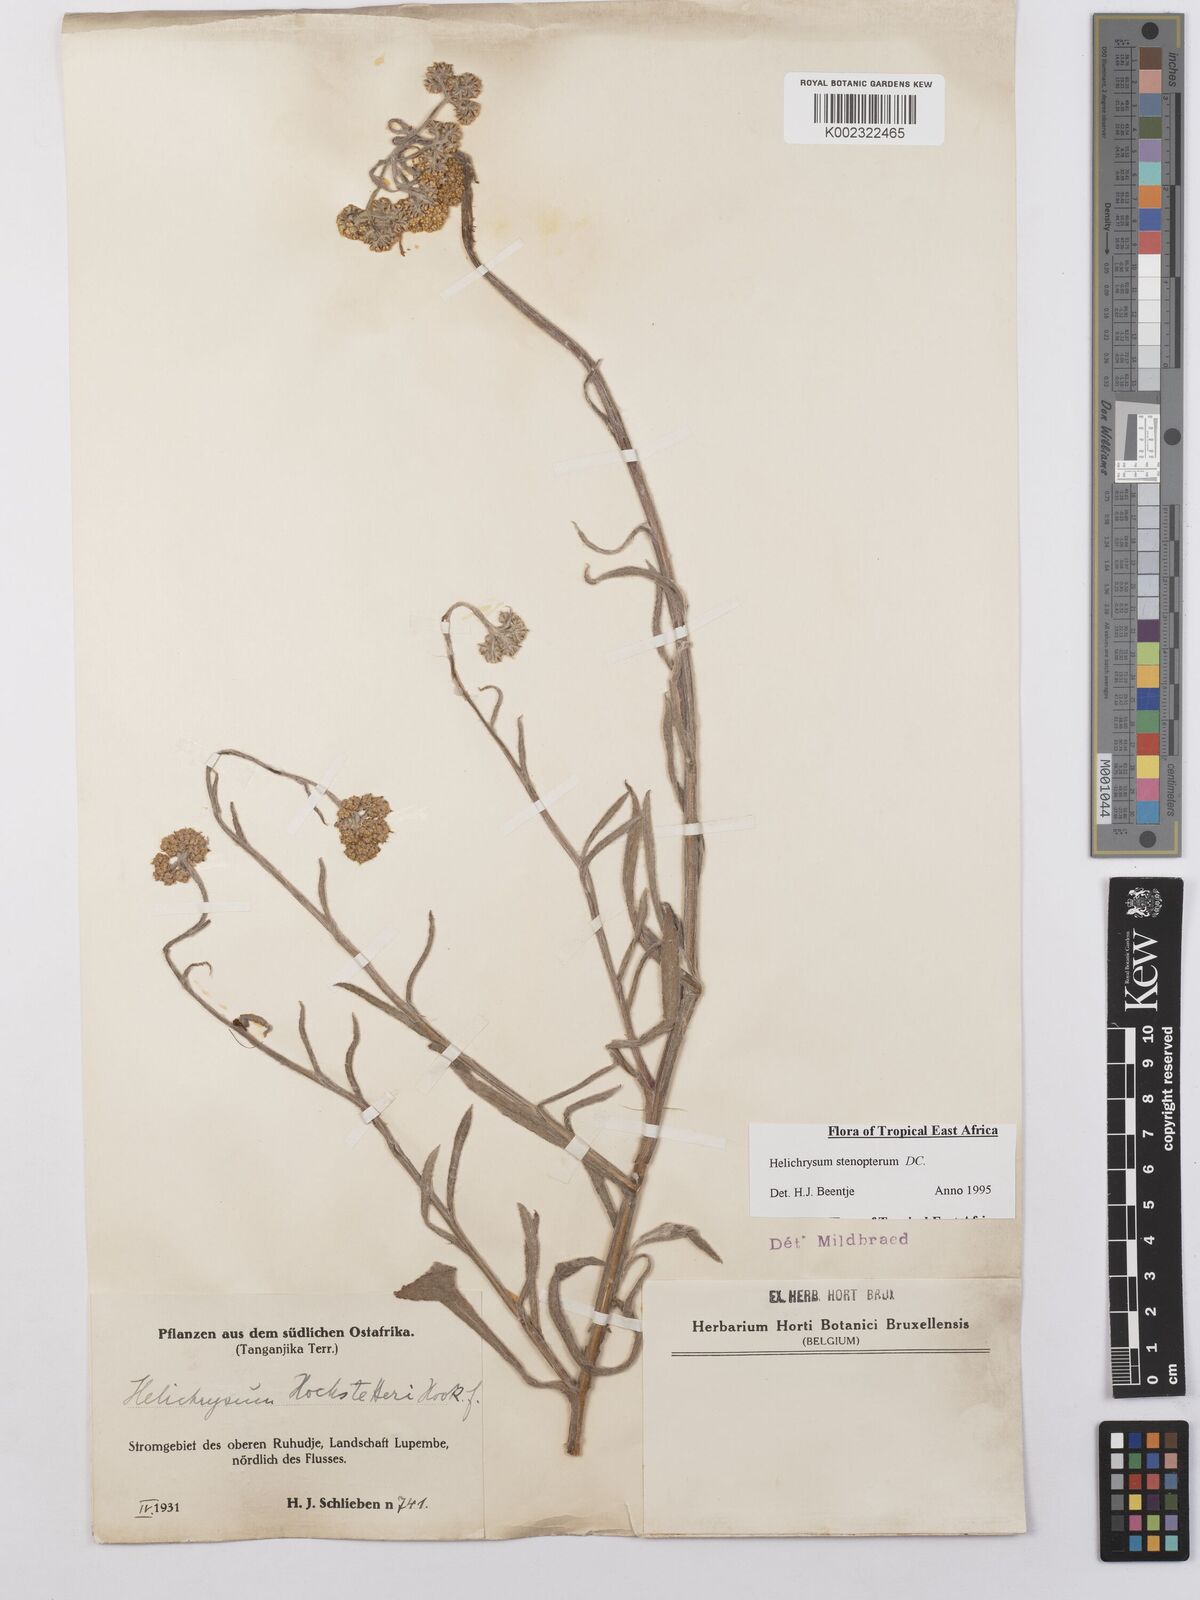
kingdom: Plantae
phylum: Tracheophyta
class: Magnoliopsida
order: Asterales
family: Asteraceae
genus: Helichrysum
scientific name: Helichrysum stenopterum
